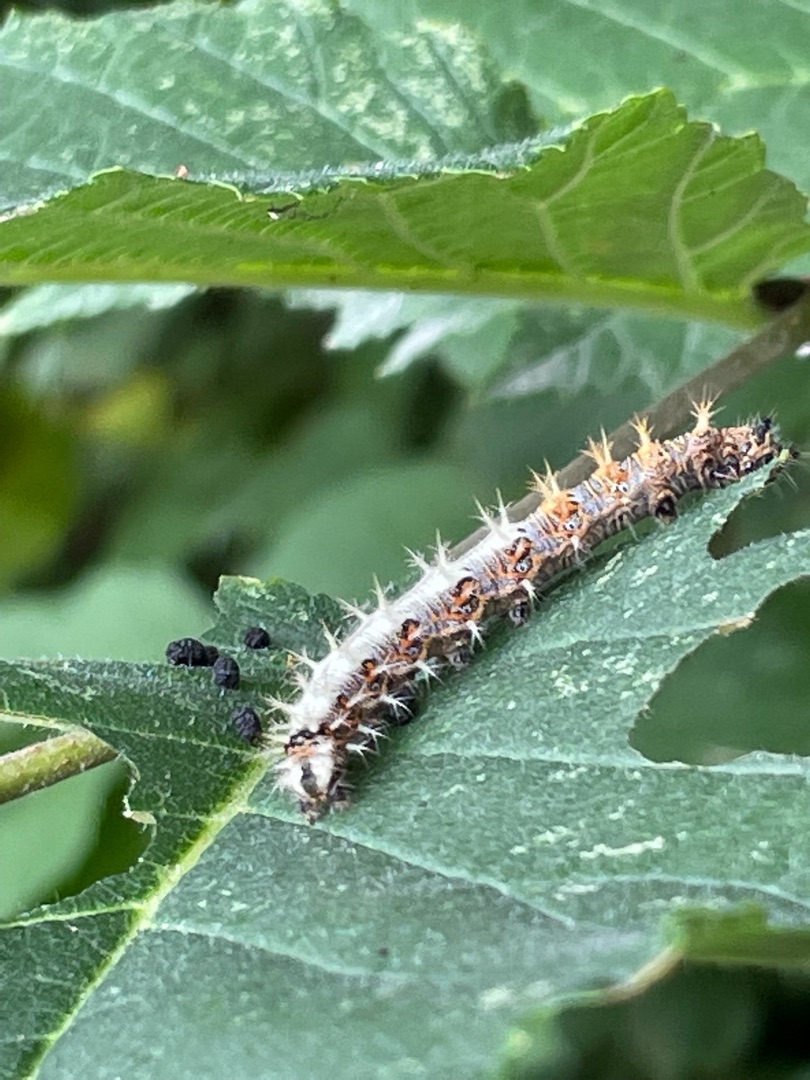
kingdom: Animalia
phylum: Arthropoda
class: Insecta
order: Lepidoptera
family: Nymphalidae
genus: Polygonia
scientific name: Polygonia c-album
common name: Det hvide C
